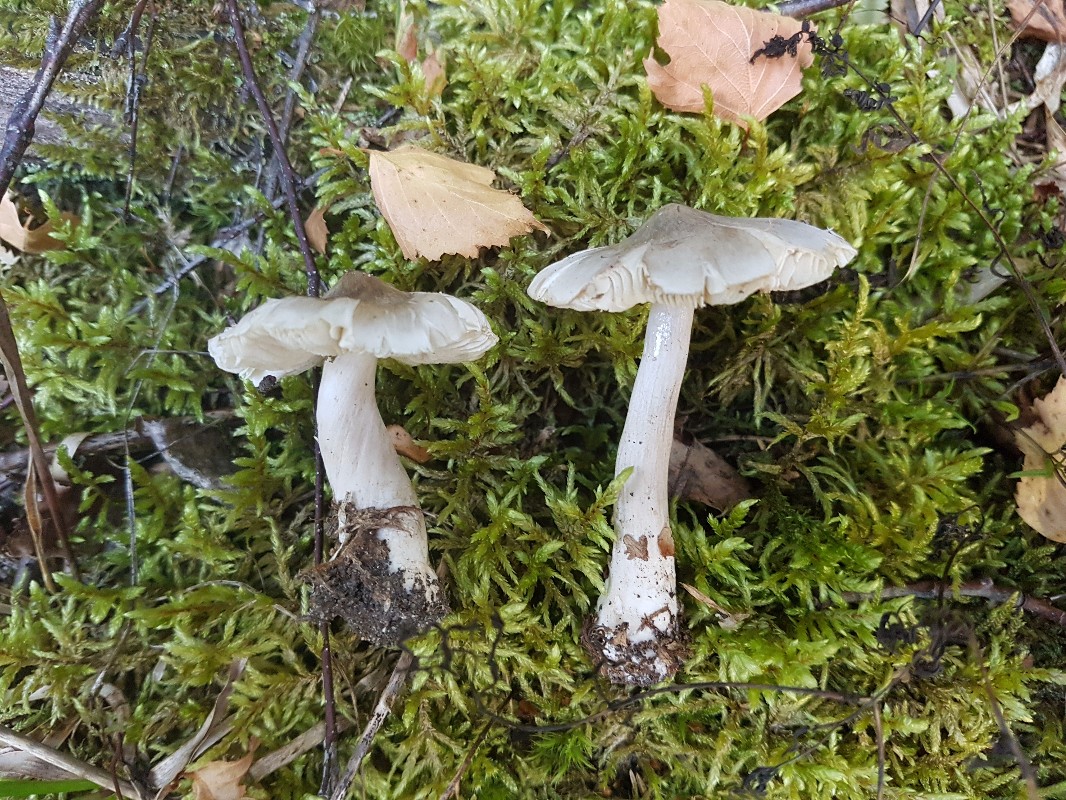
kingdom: Fungi
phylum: Basidiomycota
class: Agaricomycetes
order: Agaricales
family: Tricholomataceae
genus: Tricholoma
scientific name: Tricholoma virgatum
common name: nålestribet ridderhat
